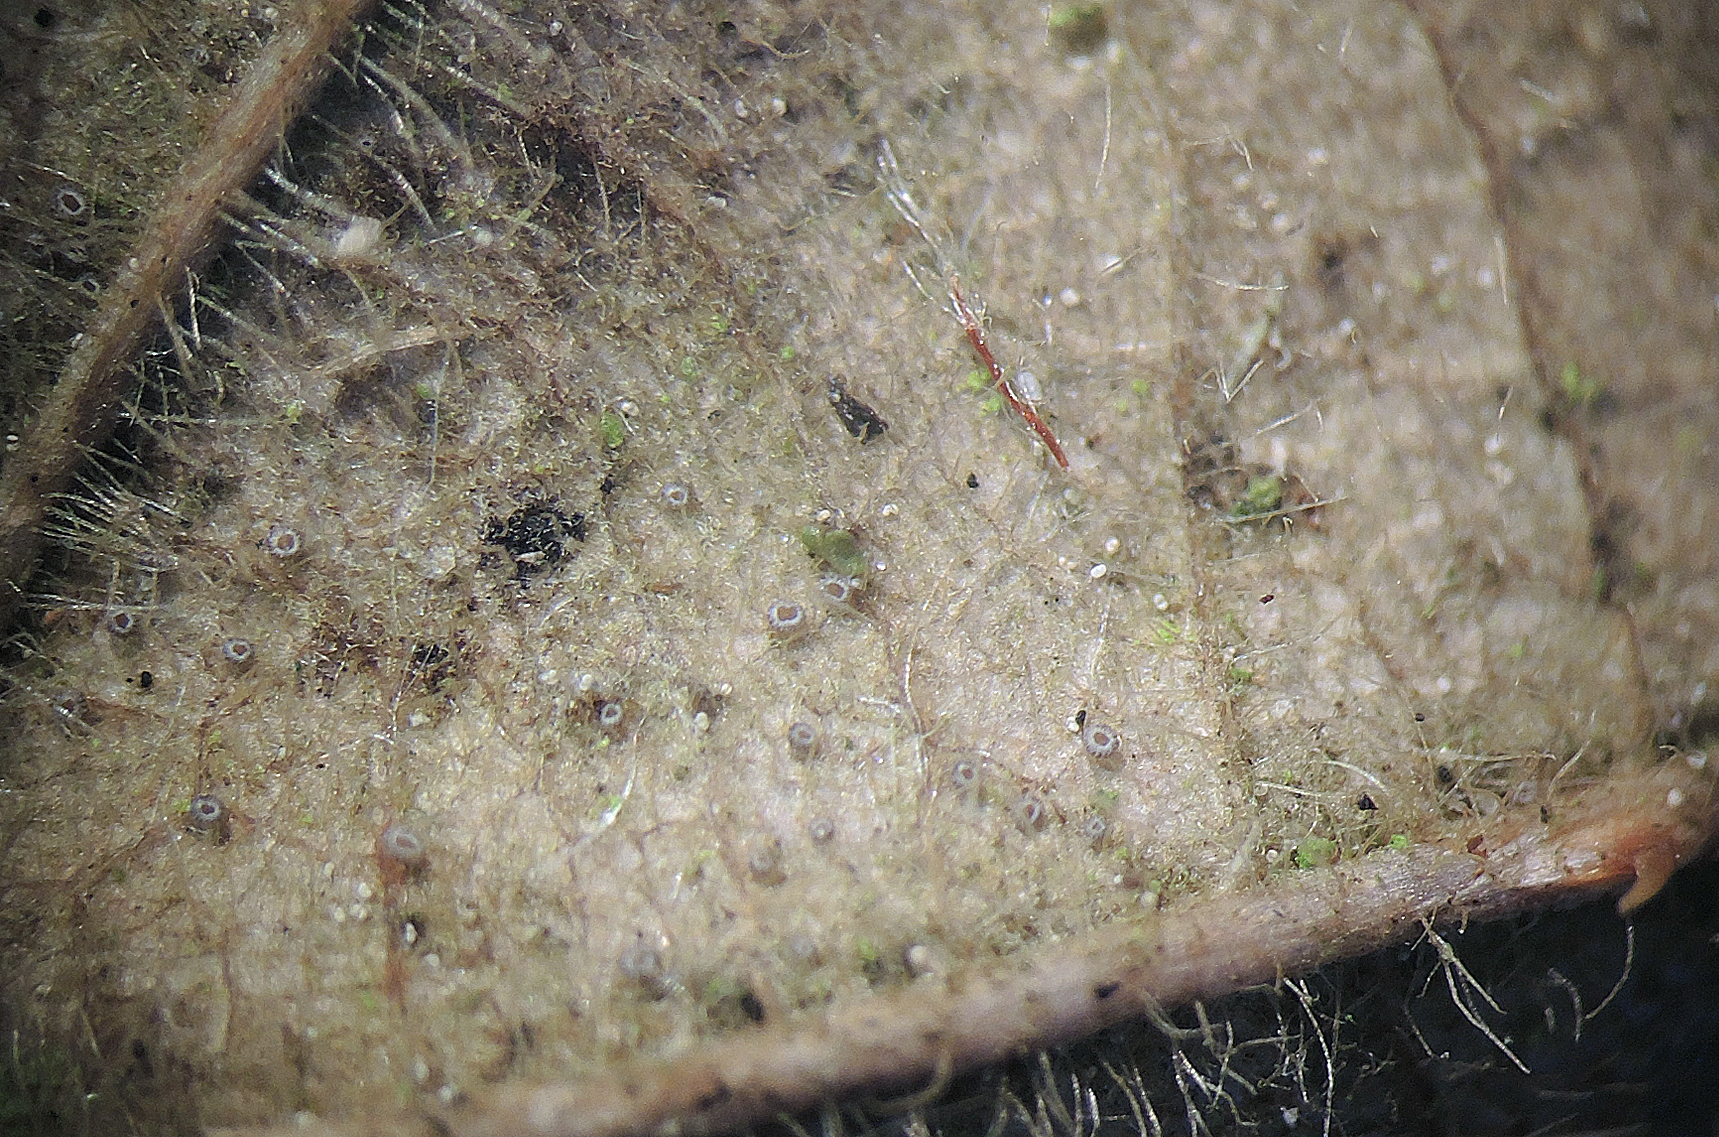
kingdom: Fungi
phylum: Ascomycota
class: Leotiomycetes
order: Helotiales
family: Hyphodiscaceae
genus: Fuscolachnum
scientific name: Fuscolachnum misellum
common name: brombærblad-sirskive
